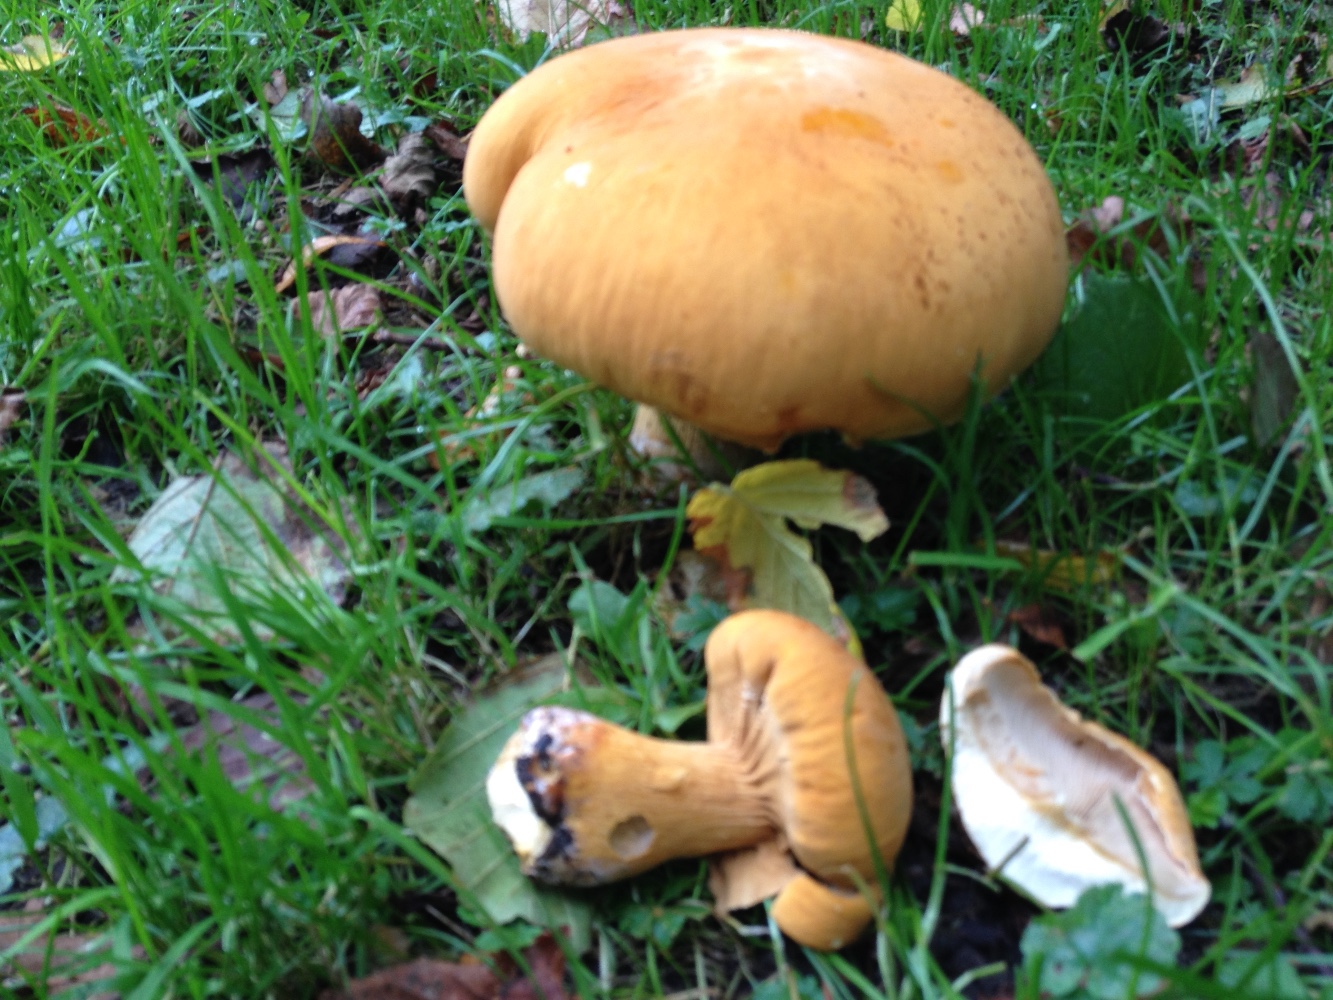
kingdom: Fungi
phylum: Basidiomycota
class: Agaricomycetes
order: Agaricales
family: Tricholomataceae
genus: Phaeolepiota
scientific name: Phaeolepiota aurea
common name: gyldenhat
